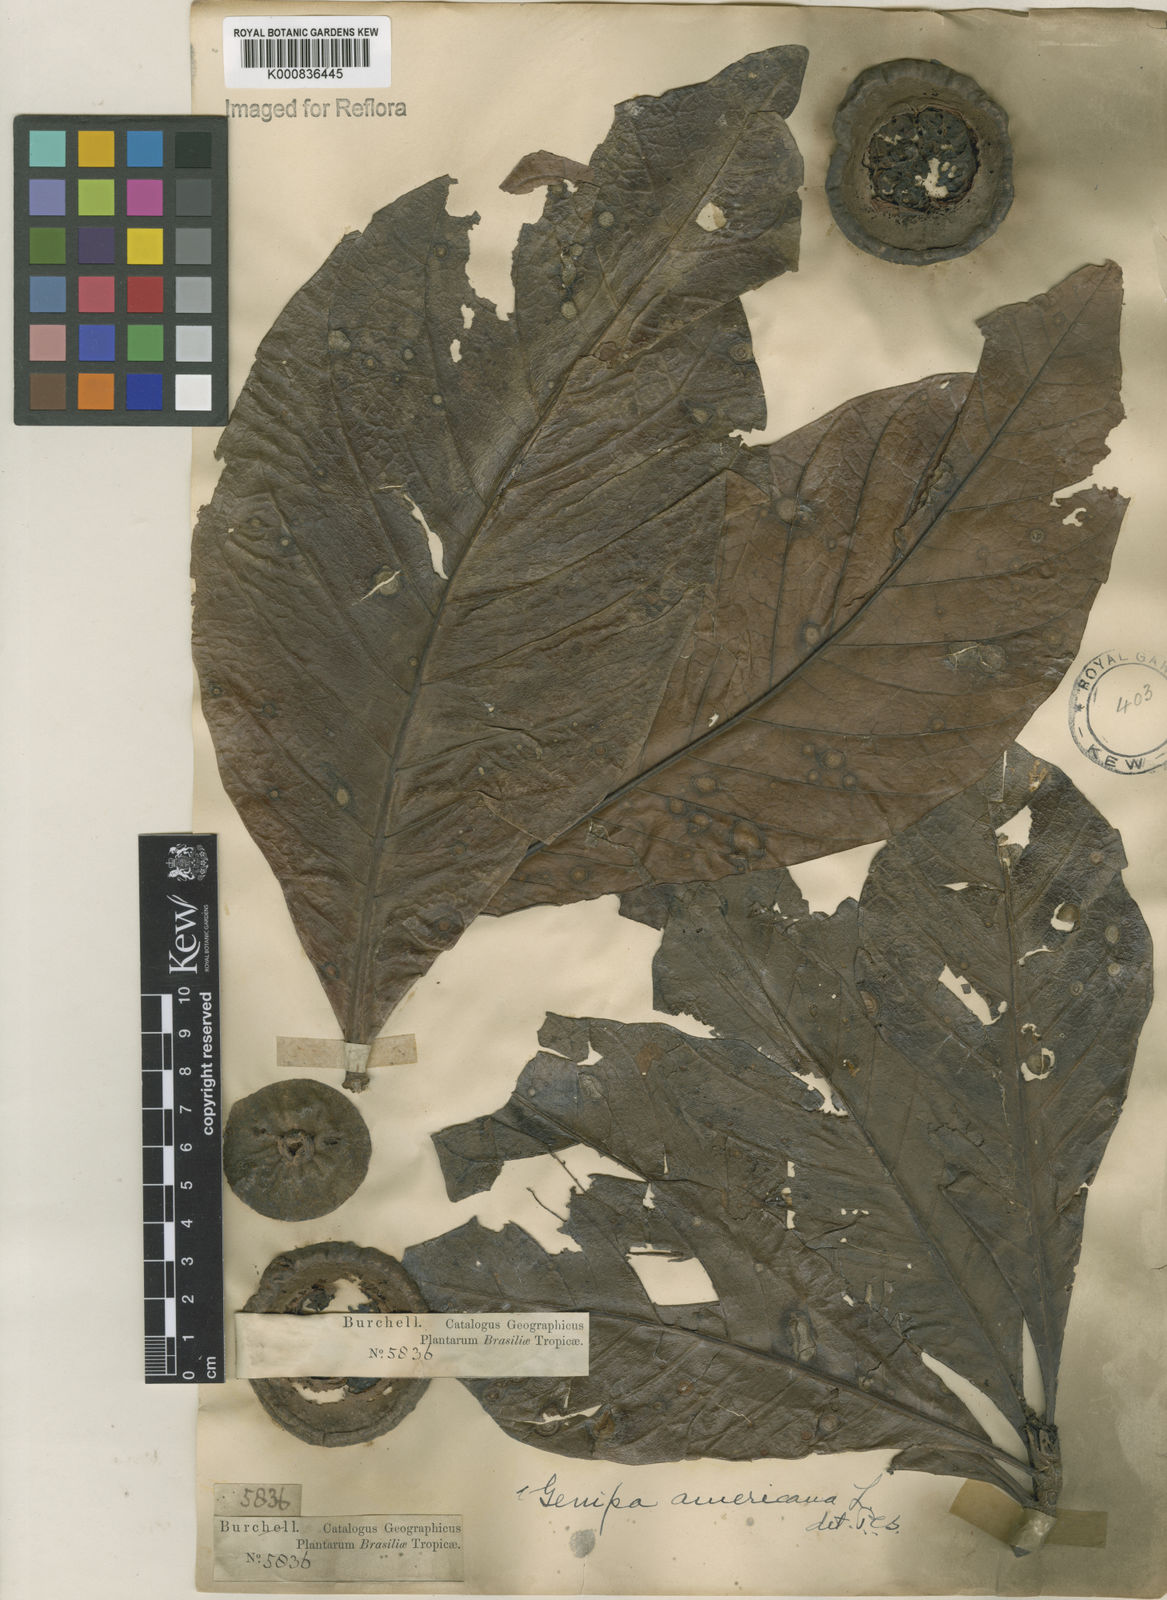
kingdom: Plantae
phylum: Tracheophyta
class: Magnoliopsida
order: Gentianales
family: Rubiaceae
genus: Genipa
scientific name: Genipa americana
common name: Genipap
